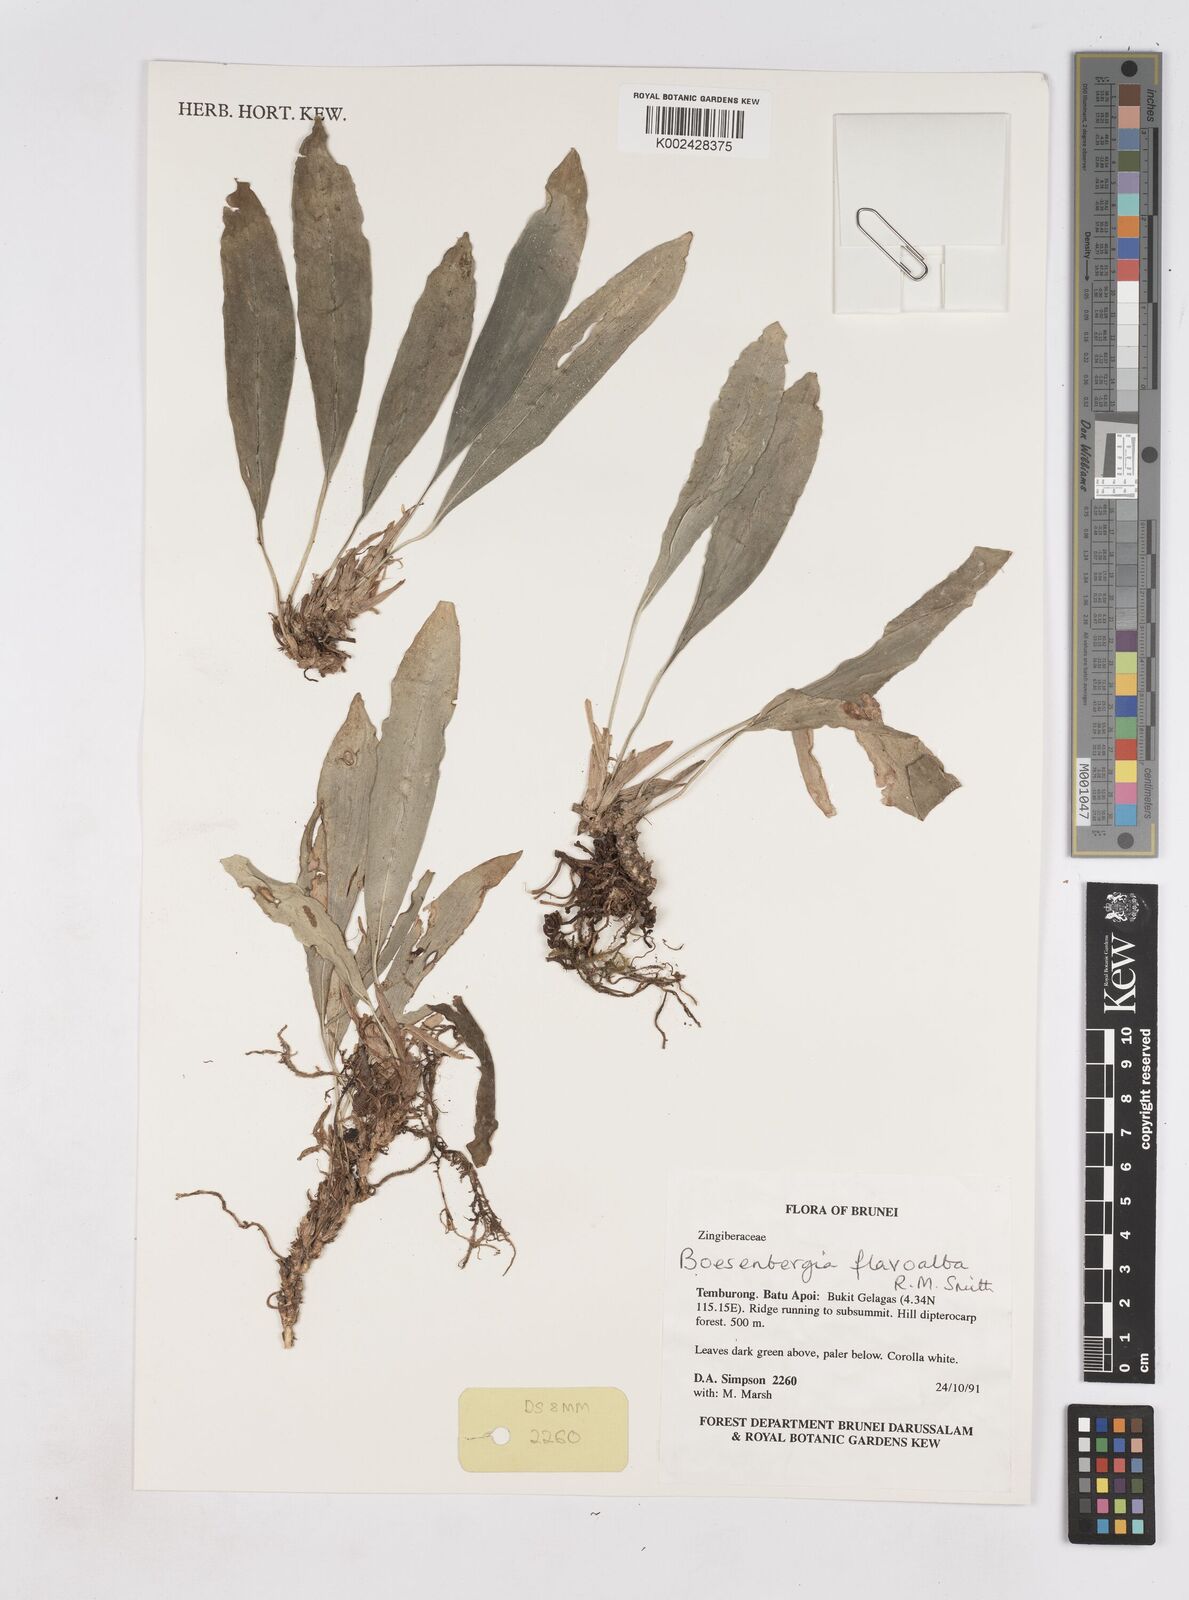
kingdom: Plantae
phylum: Tracheophyta
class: Liliopsida
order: Zingiberales
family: Zingiberaceae
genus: Boesenbergia
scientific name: Boesenbergia flavoalba
